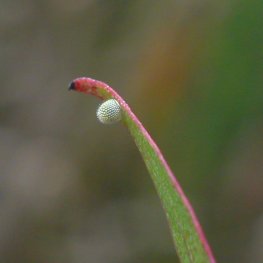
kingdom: Animalia
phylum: Arthropoda
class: Insecta
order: Lepidoptera
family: Nymphalidae
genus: Limenitis
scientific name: Limenitis archippus
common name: Viceroy
